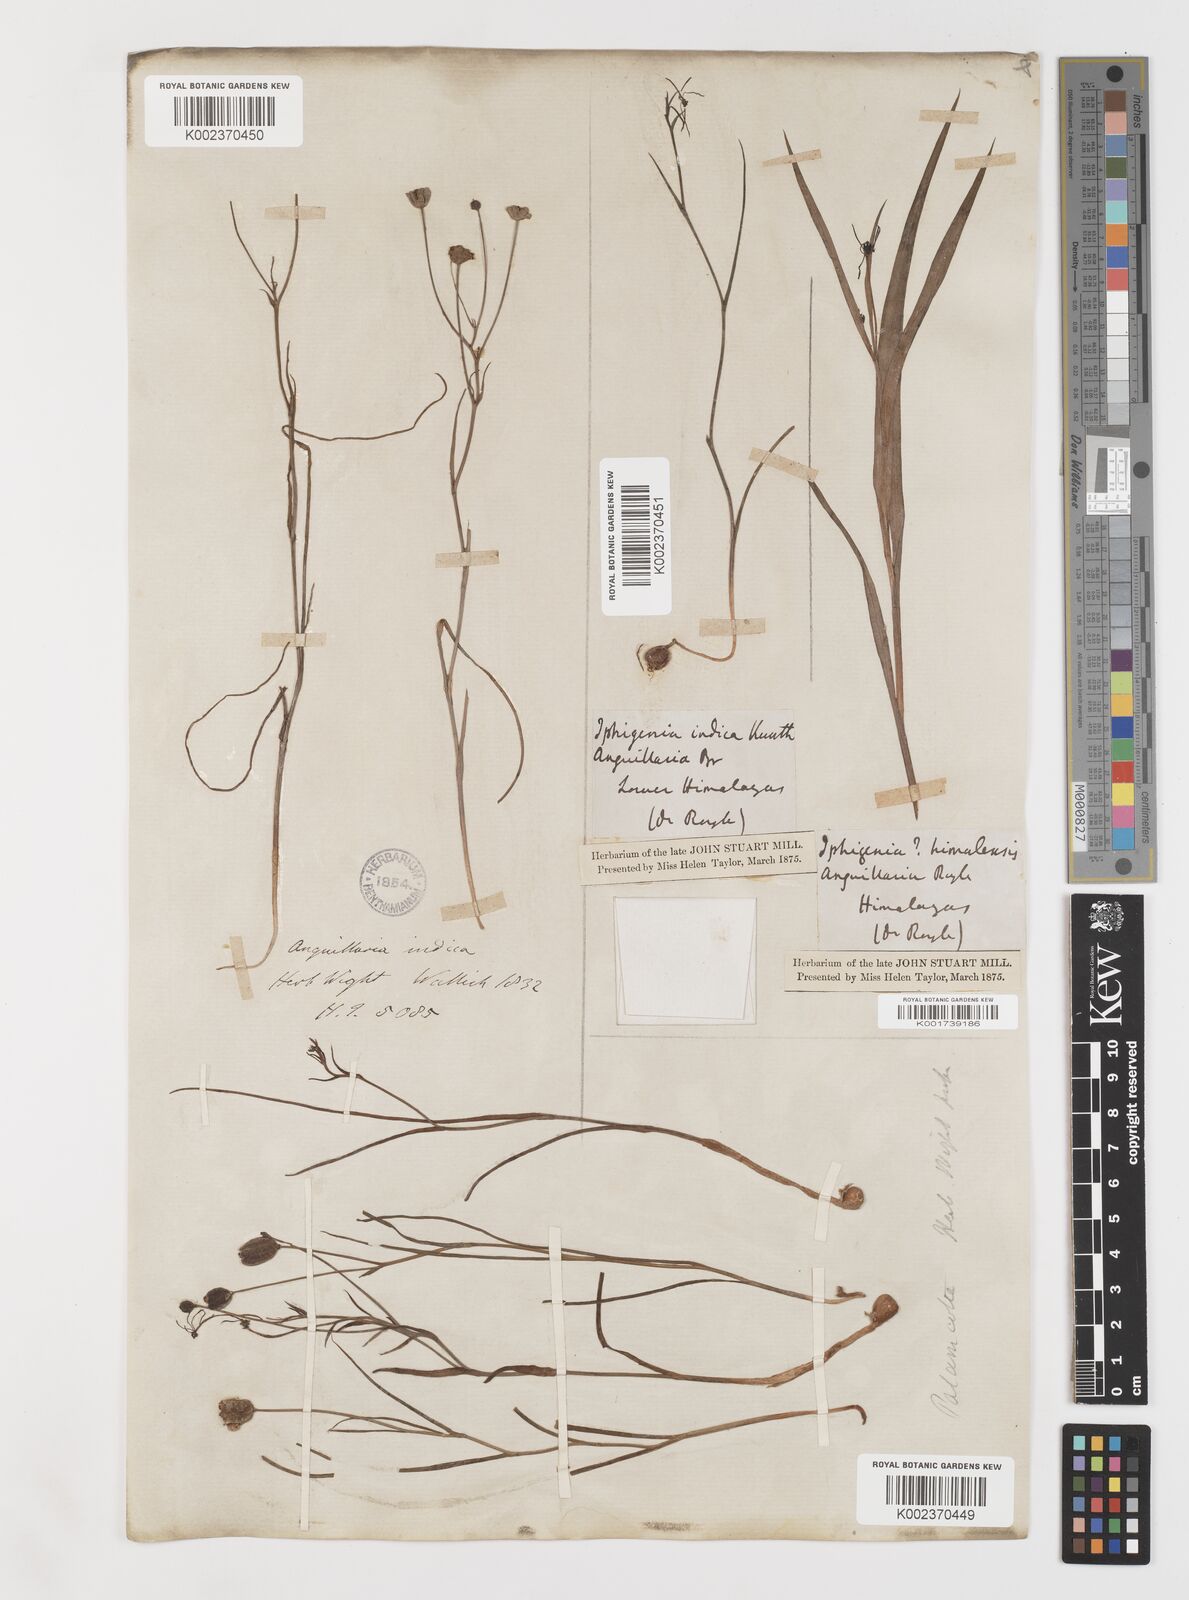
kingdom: Plantae
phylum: Tracheophyta
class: Liliopsida
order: Liliales
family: Colchicaceae
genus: Iphigenia
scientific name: Iphigenia indica
